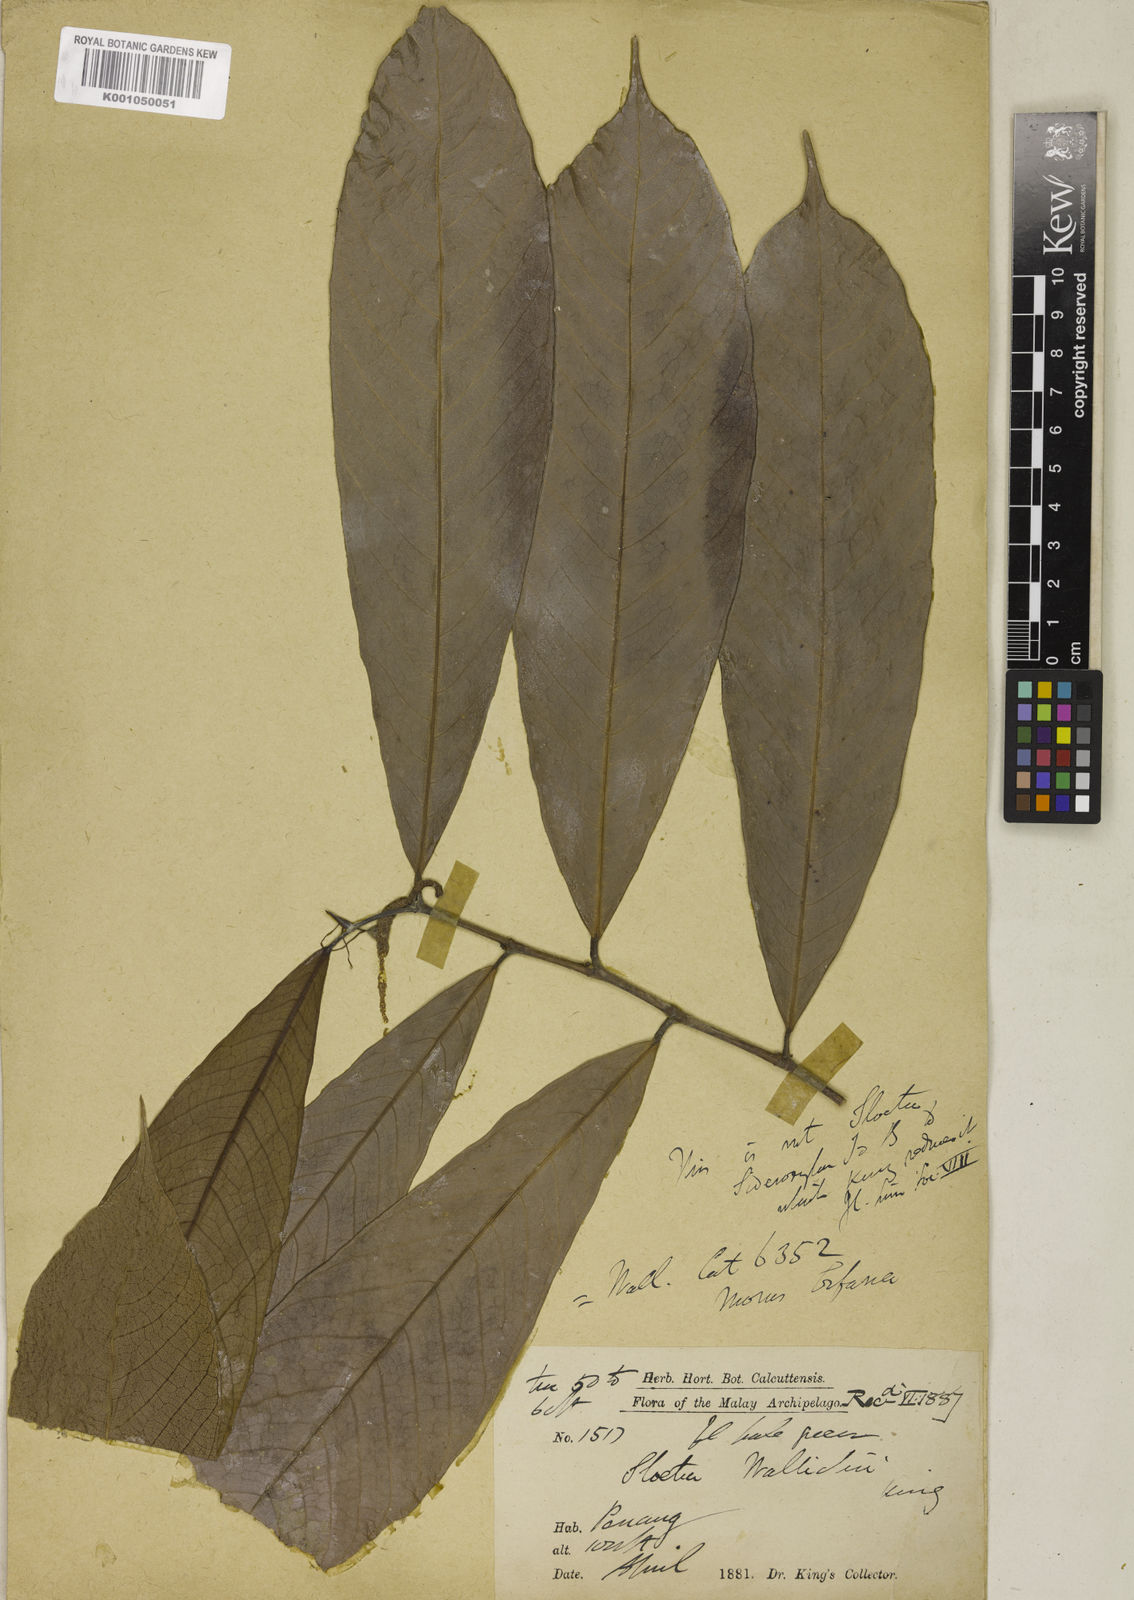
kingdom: Plantae
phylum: Tracheophyta
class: Magnoliopsida
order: Rosales
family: Moraceae
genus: Sloetia
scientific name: Sloetia elongata
